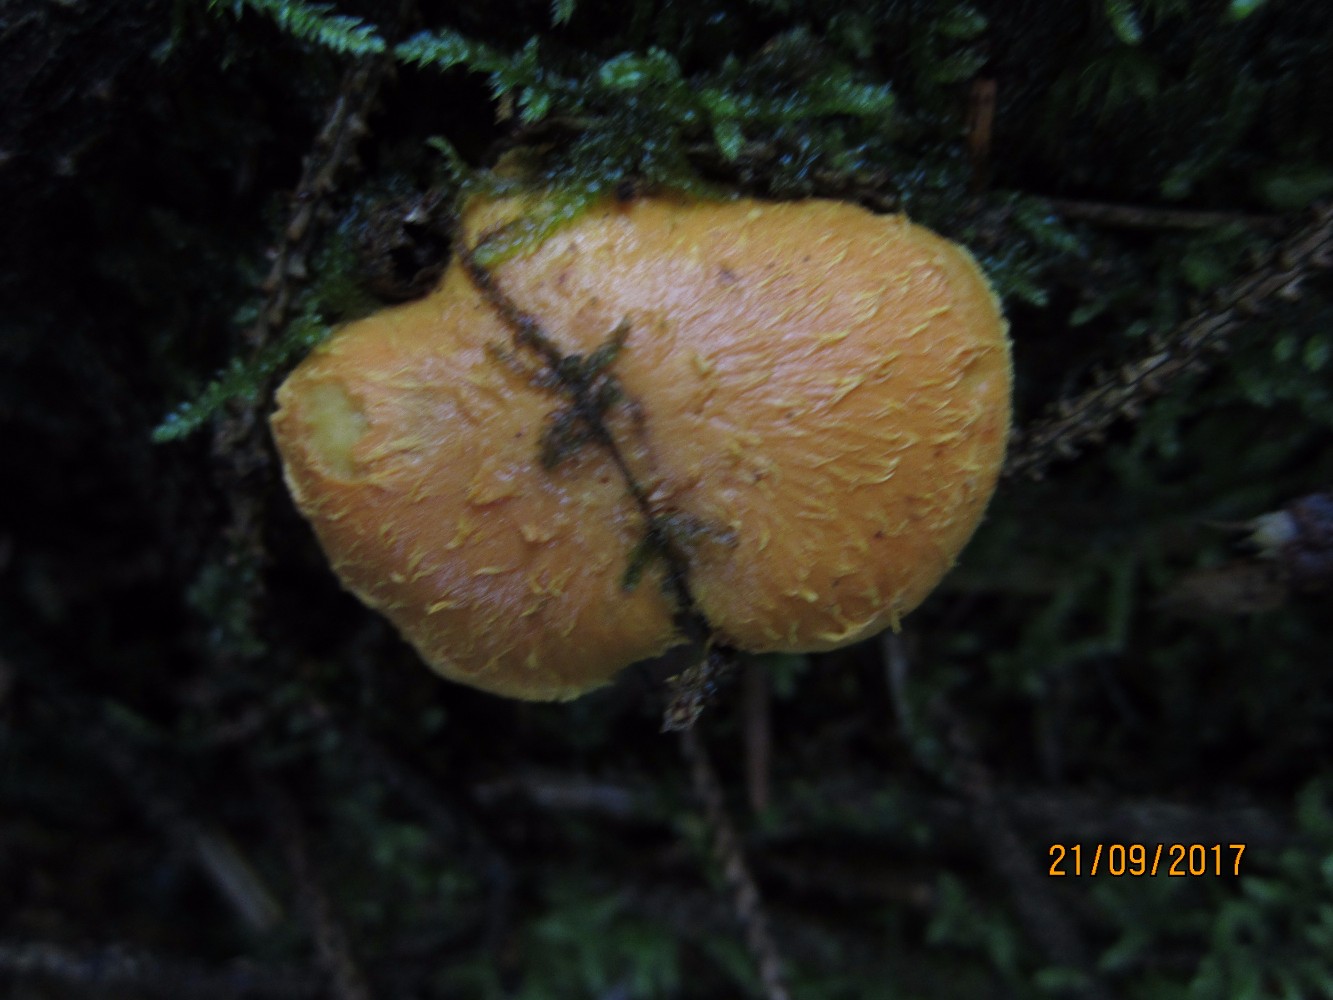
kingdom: Fungi
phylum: Basidiomycota
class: Agaricomycetes
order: Agaricales
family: Strophariaceae
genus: Pholiota
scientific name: Pholiota flammans
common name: flamme-skælhat
